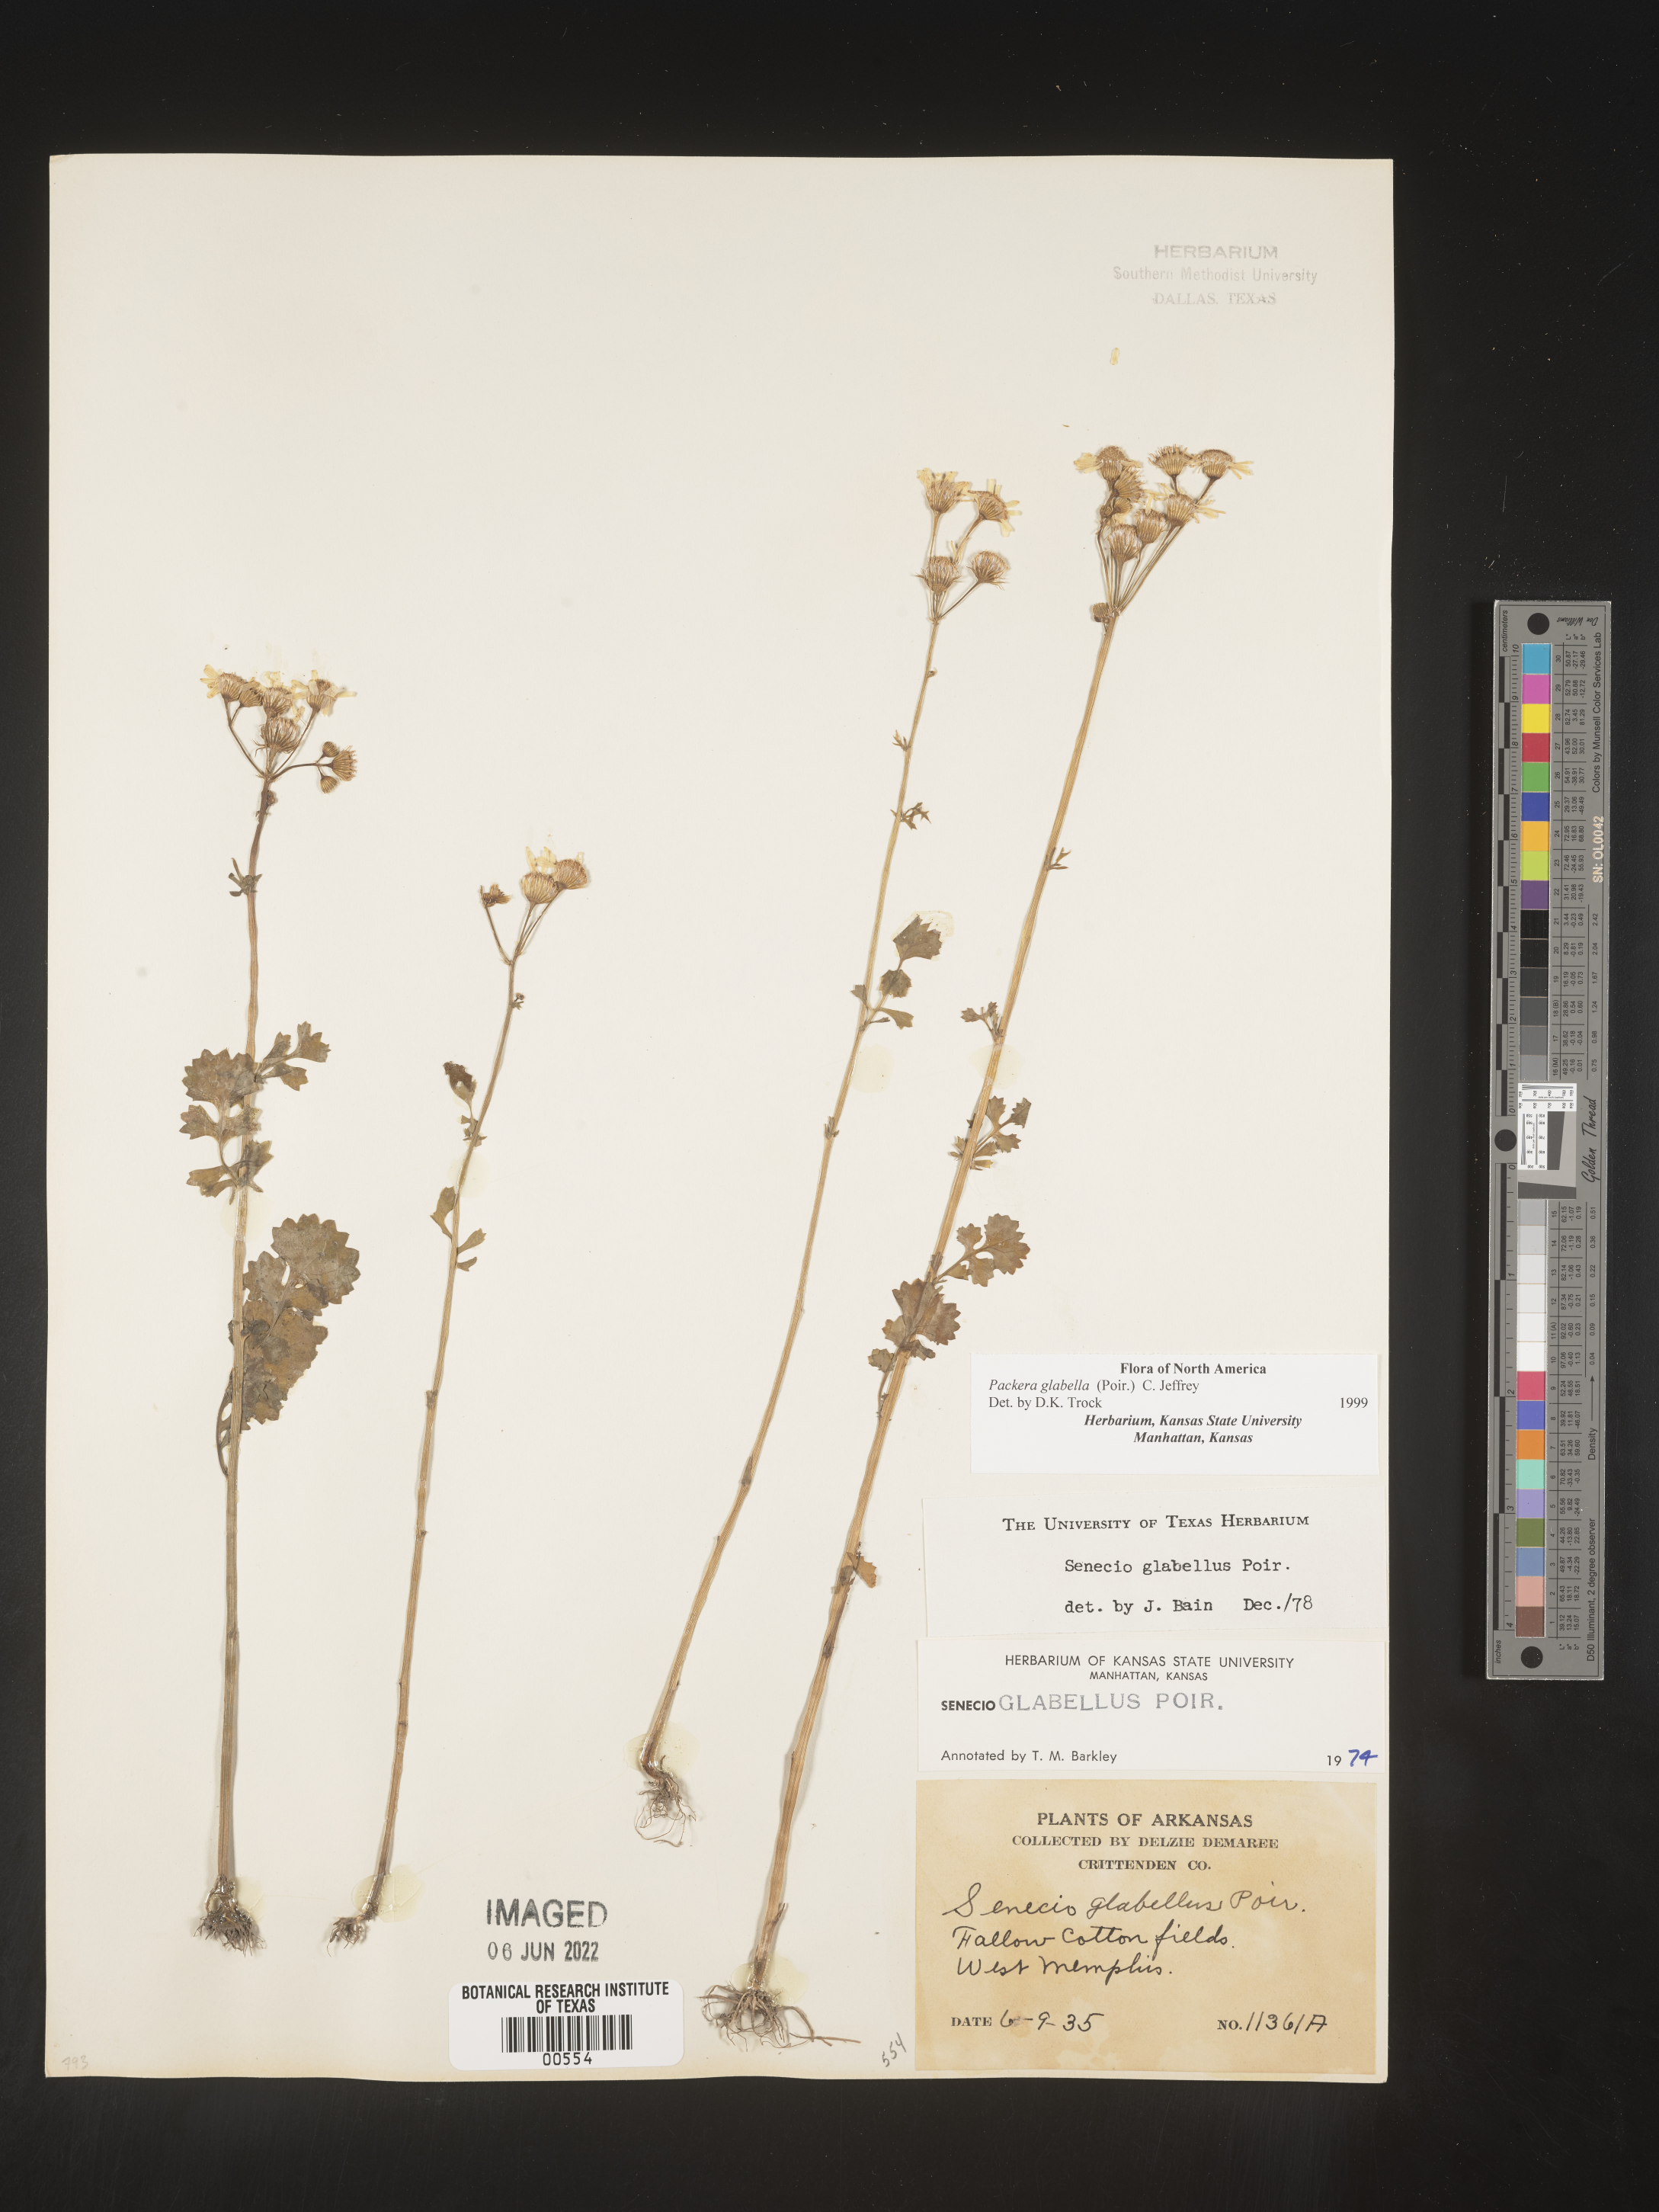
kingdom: Plantae
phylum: Tracheophyta
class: Magnoliopsida
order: Asterales
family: Asteraceae
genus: Packera
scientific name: Packera glabella
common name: Butterweed
